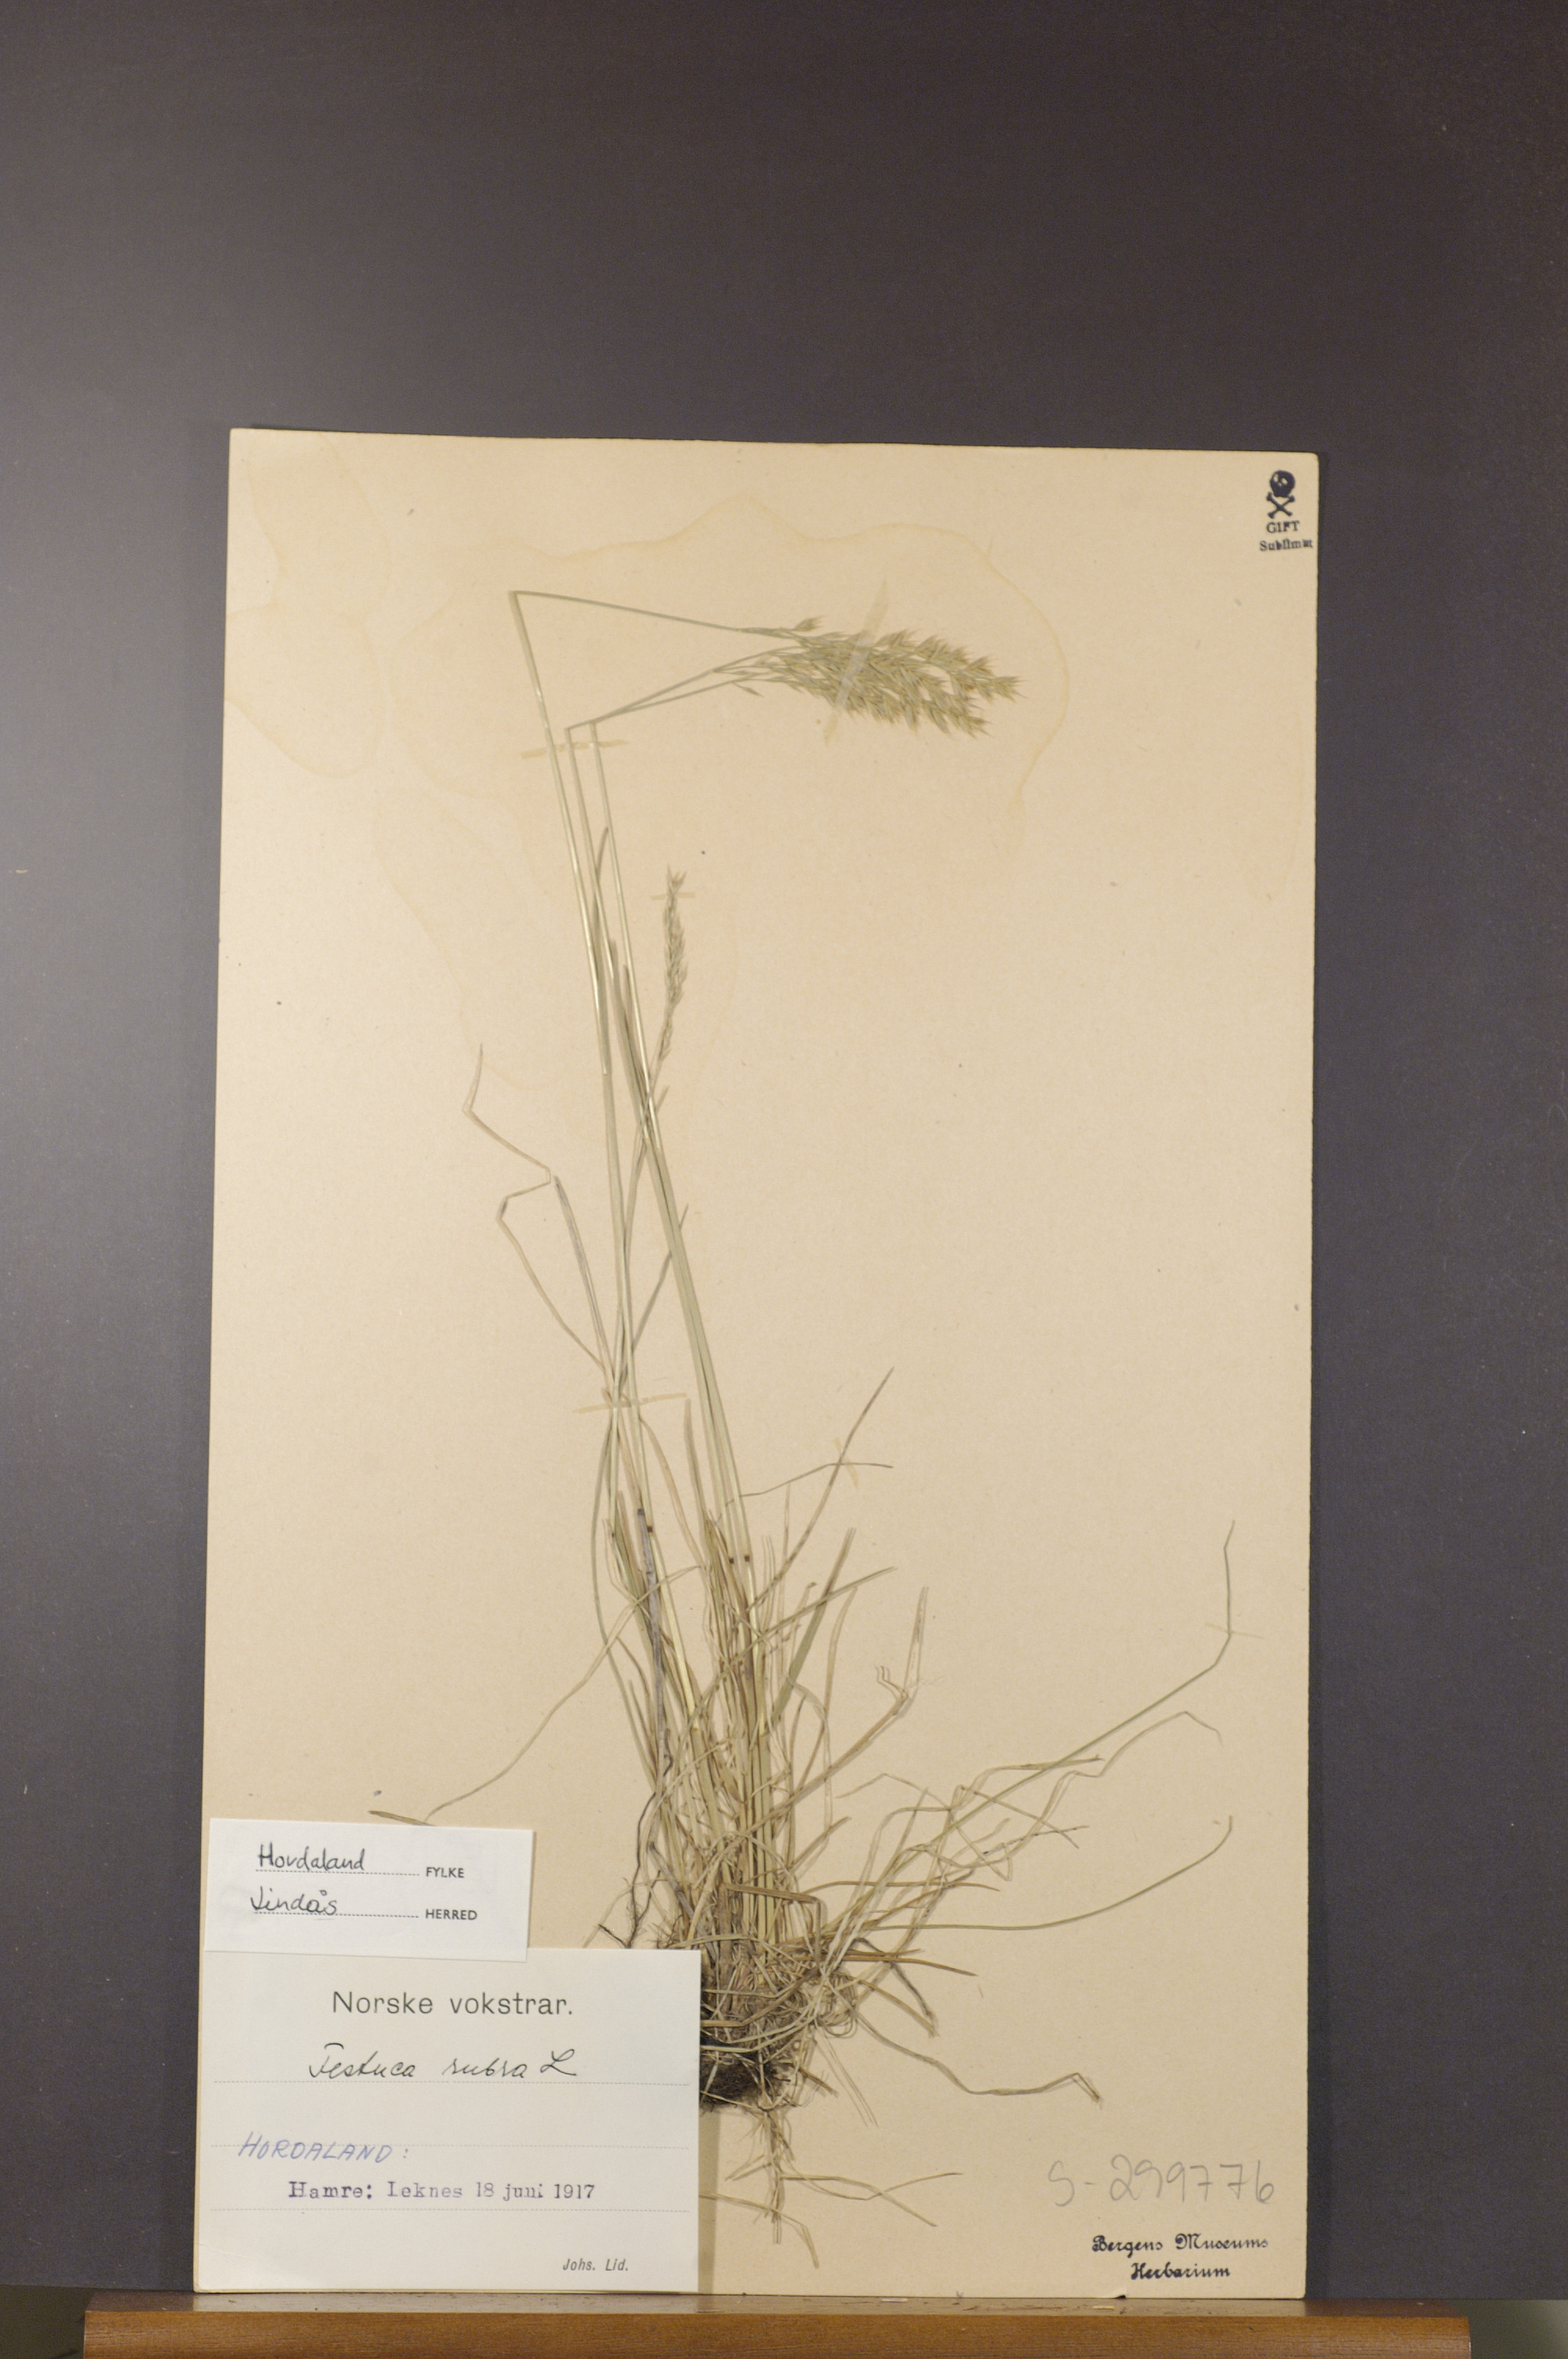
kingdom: Plantae
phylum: Tracheophyta
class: Liliopsida
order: Poales
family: Poaceae
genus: Festuca
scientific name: Festuca rubra
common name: Red fescue
